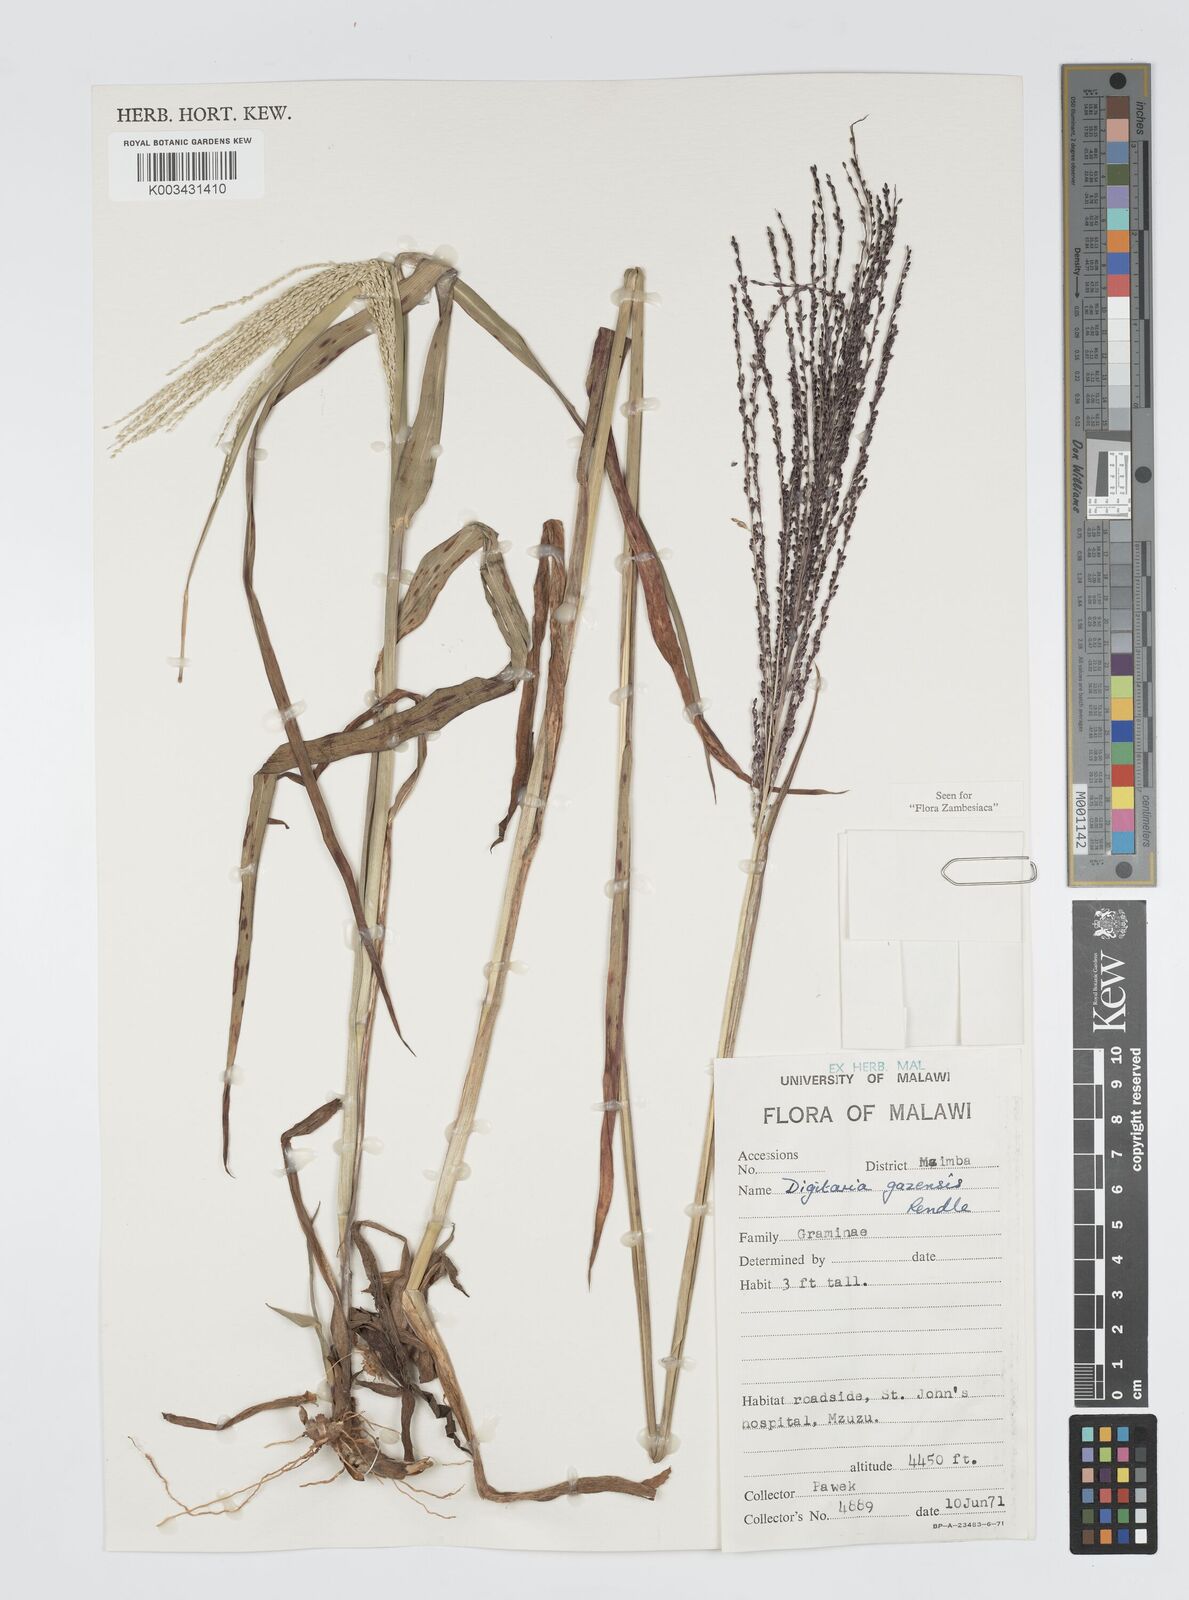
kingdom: Plantae
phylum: Tracheophyta
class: Liliopsida
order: Poales
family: Poaceae
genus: Digitaria
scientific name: Digitaria gazensis
